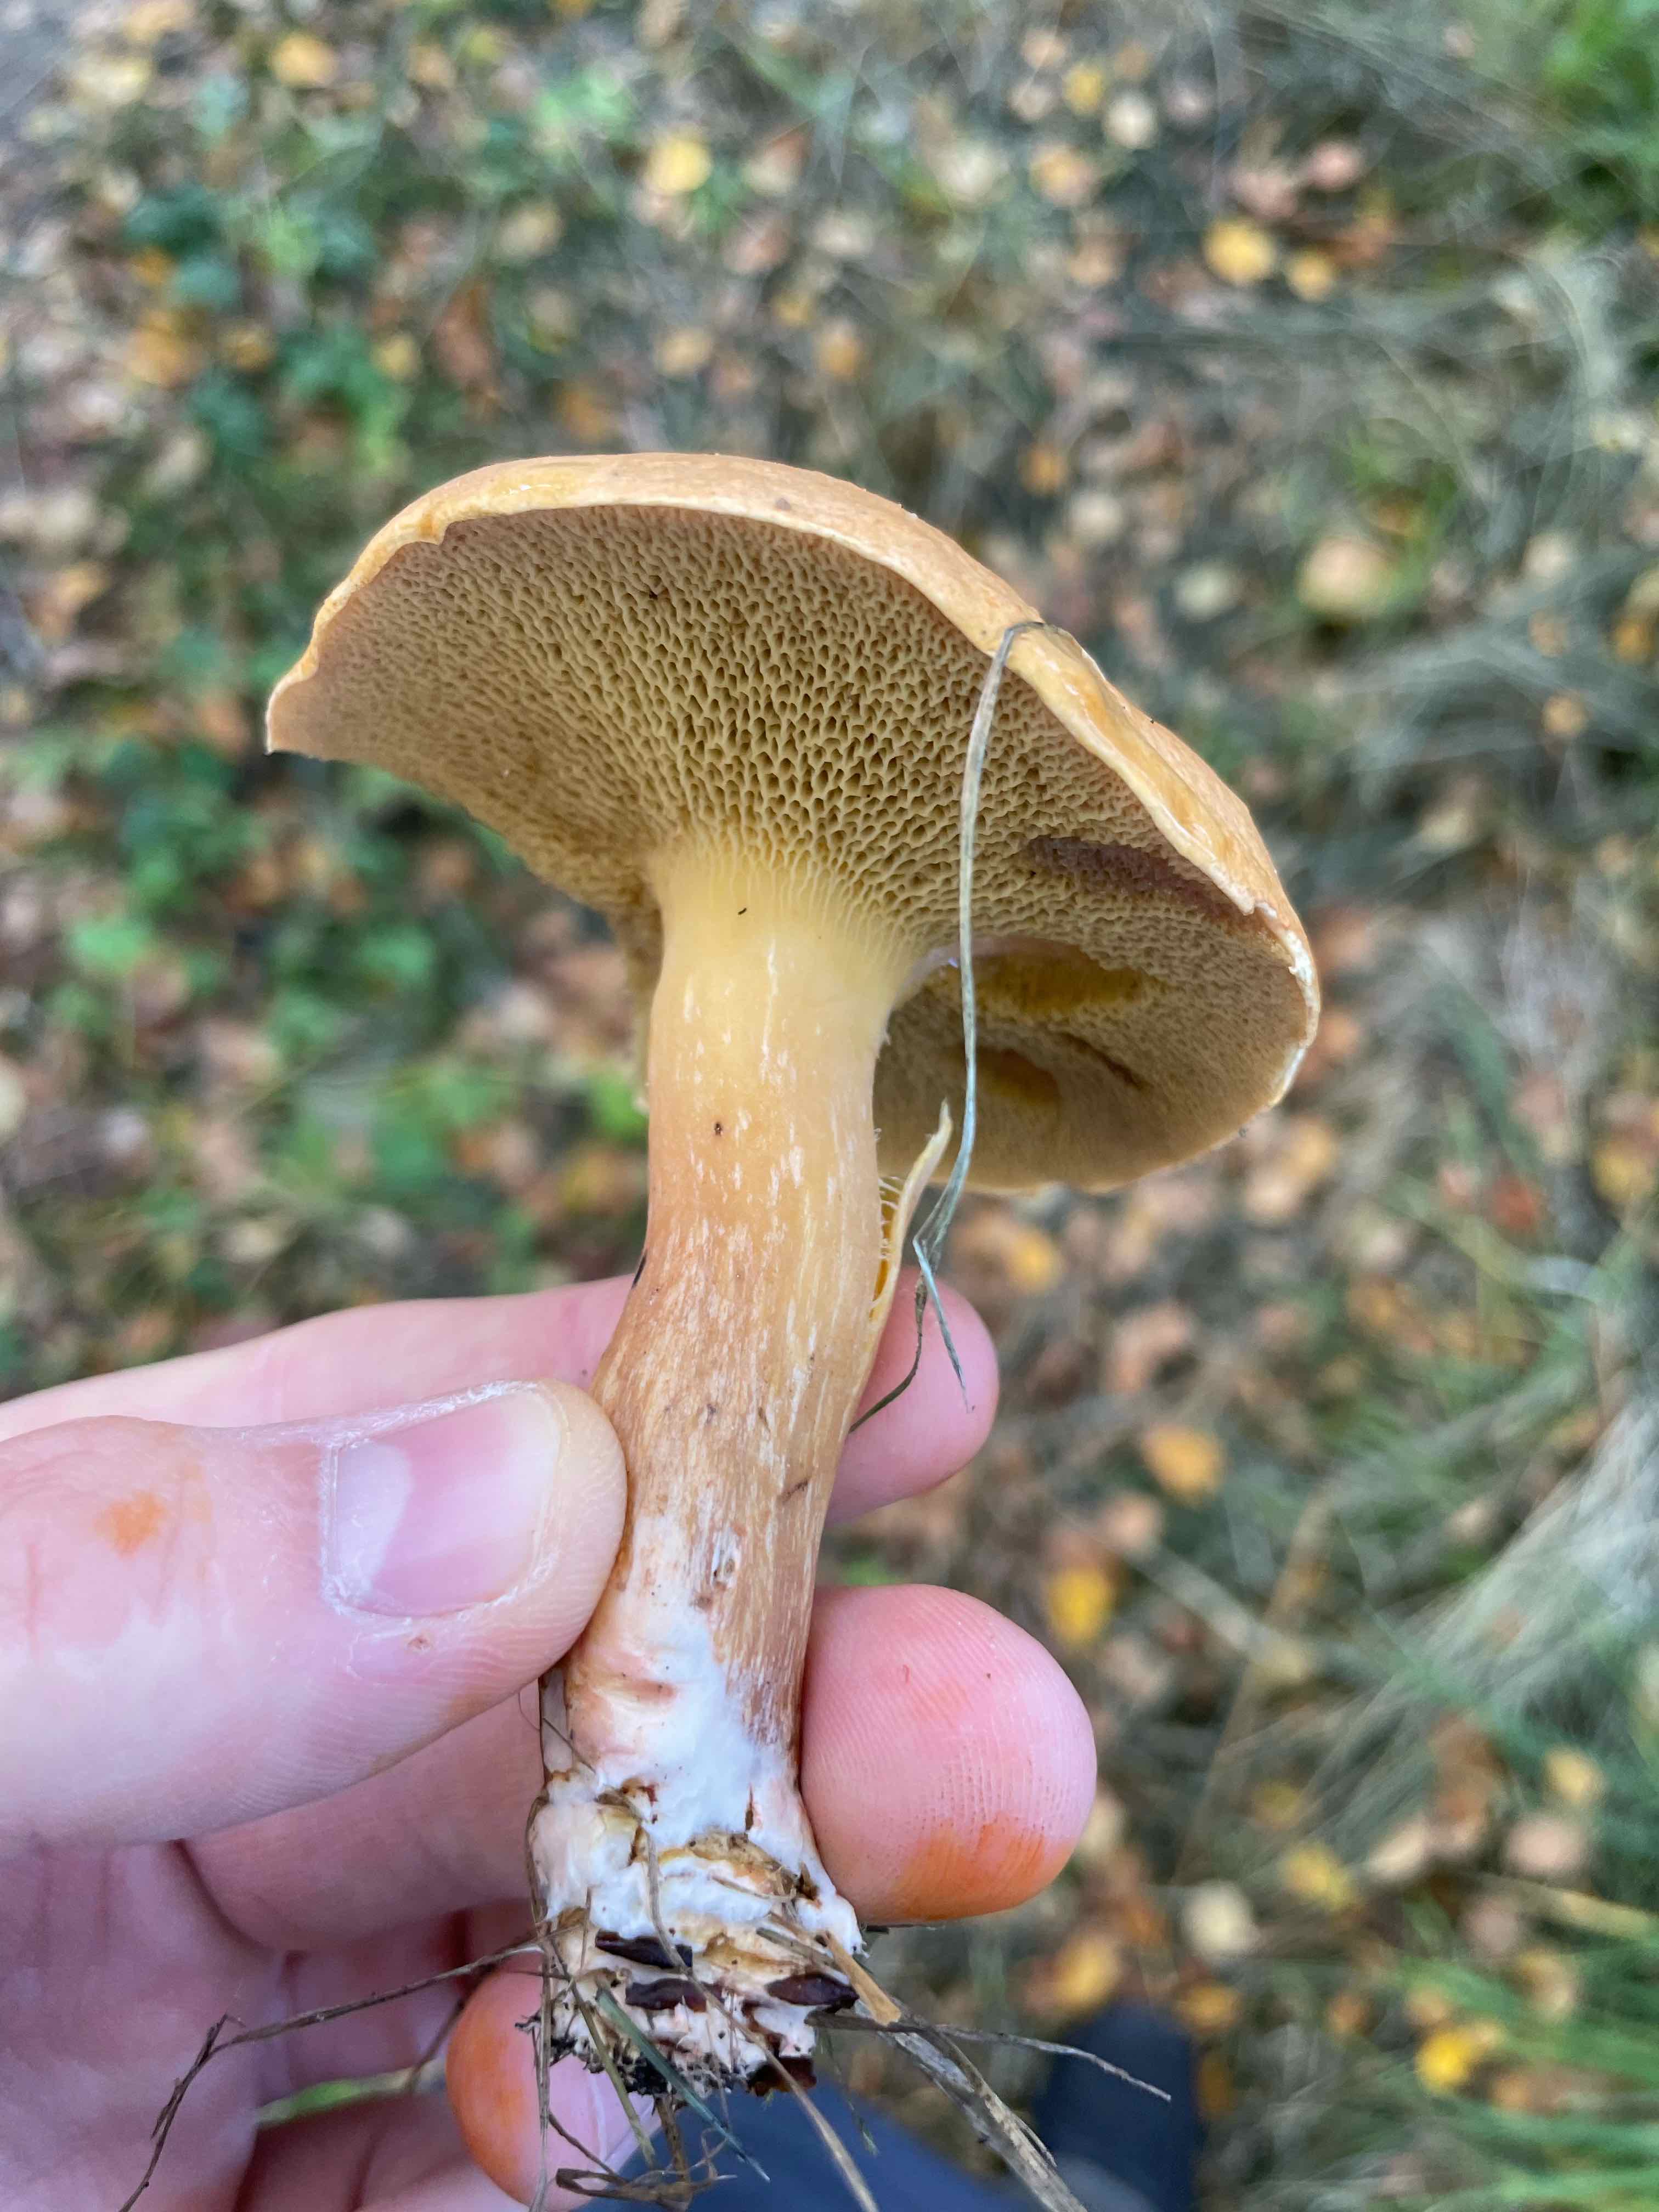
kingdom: Fungi
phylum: Basidiomycota
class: Agaricomycetes
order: Boletales
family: Suillaceae
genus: Suillus
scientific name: Suillus bovinus
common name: grovporet slimrørhat
